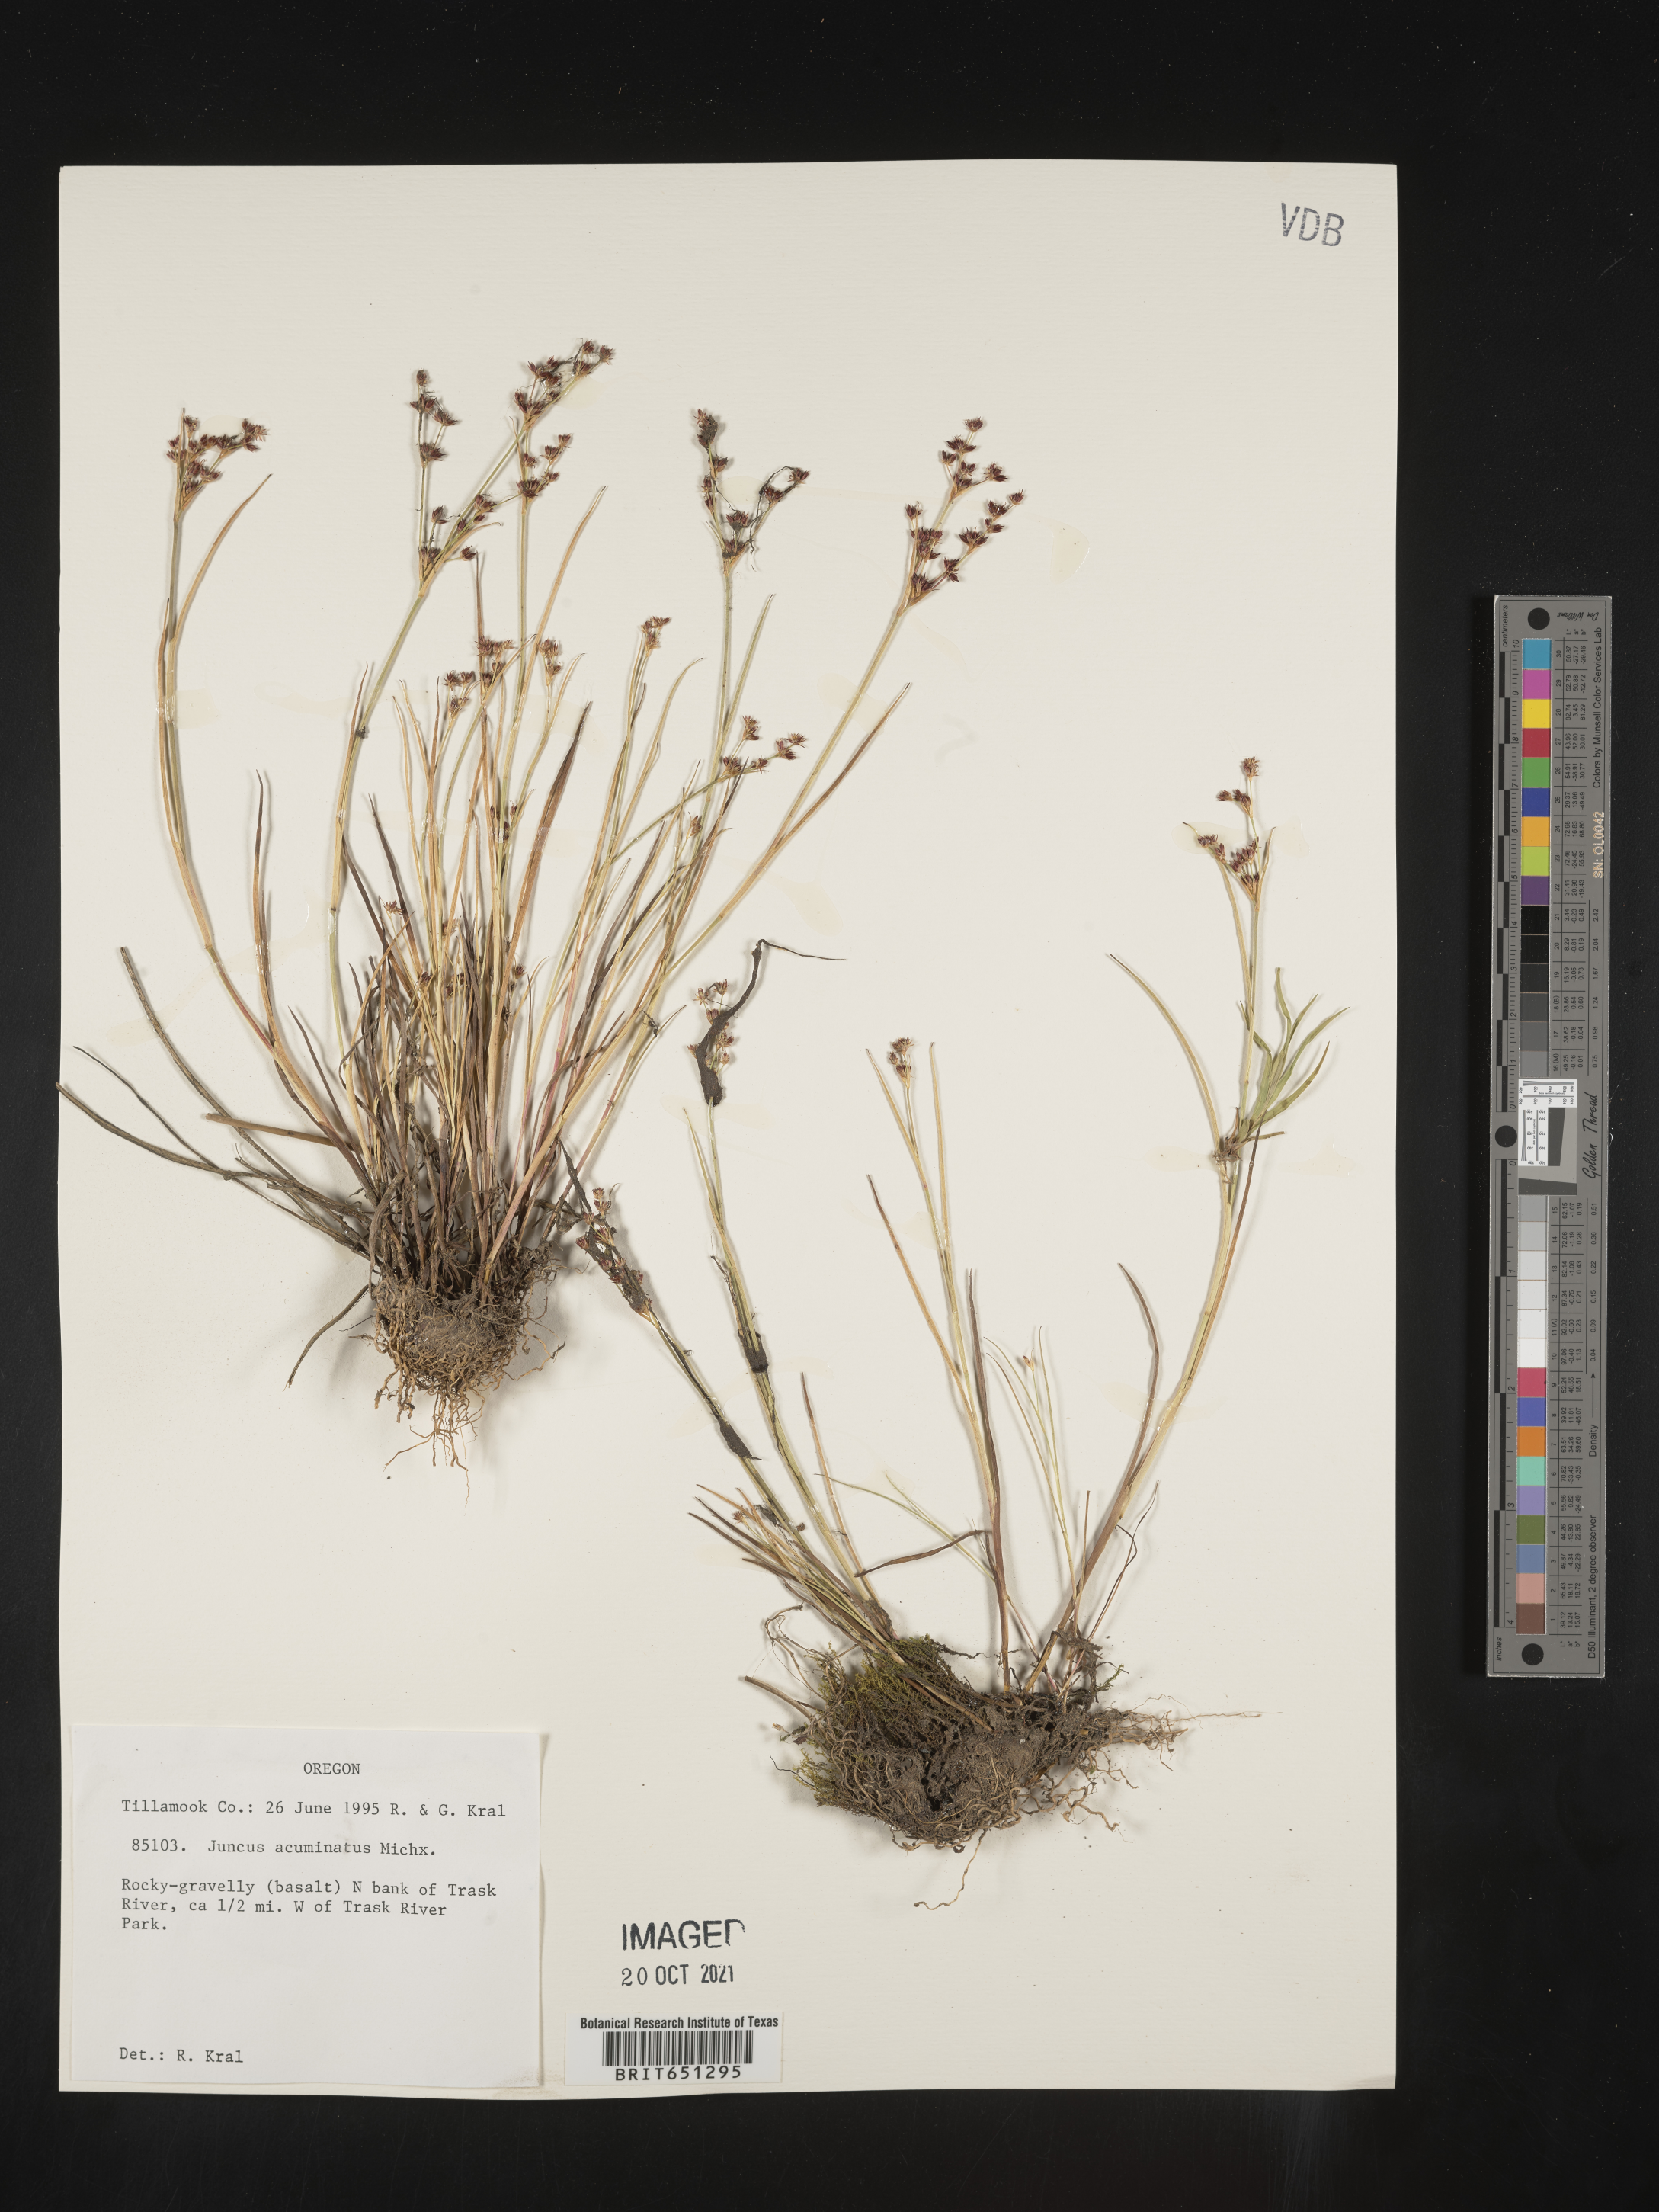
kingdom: Plantae
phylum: Tracheophyta
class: Liliopsida
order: Poales
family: Juncaceae
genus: Juncus
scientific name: Juncus acuminatus
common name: Knotty-leaved rush
